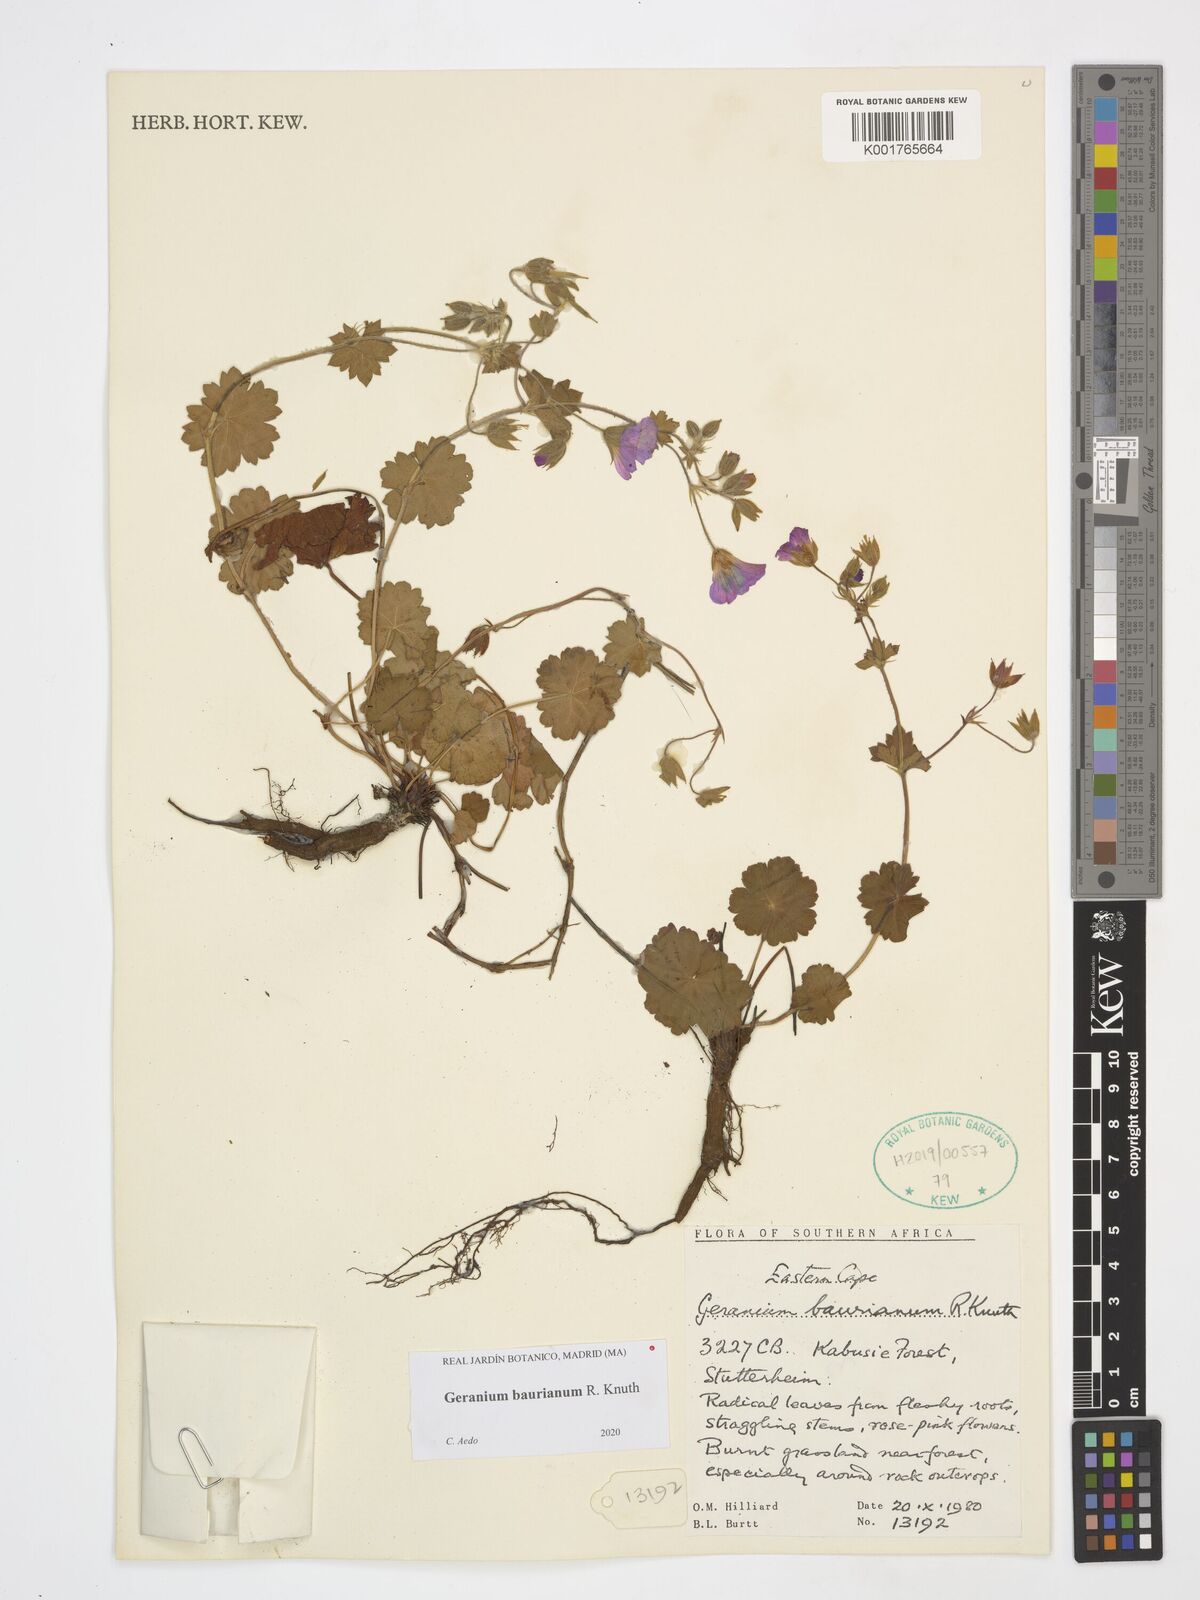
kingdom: Plantae
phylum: Tracheophyta
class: Magnoliopsida
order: Geraniales
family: Geraniaceae
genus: Geranium
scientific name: Geranium baurianum
